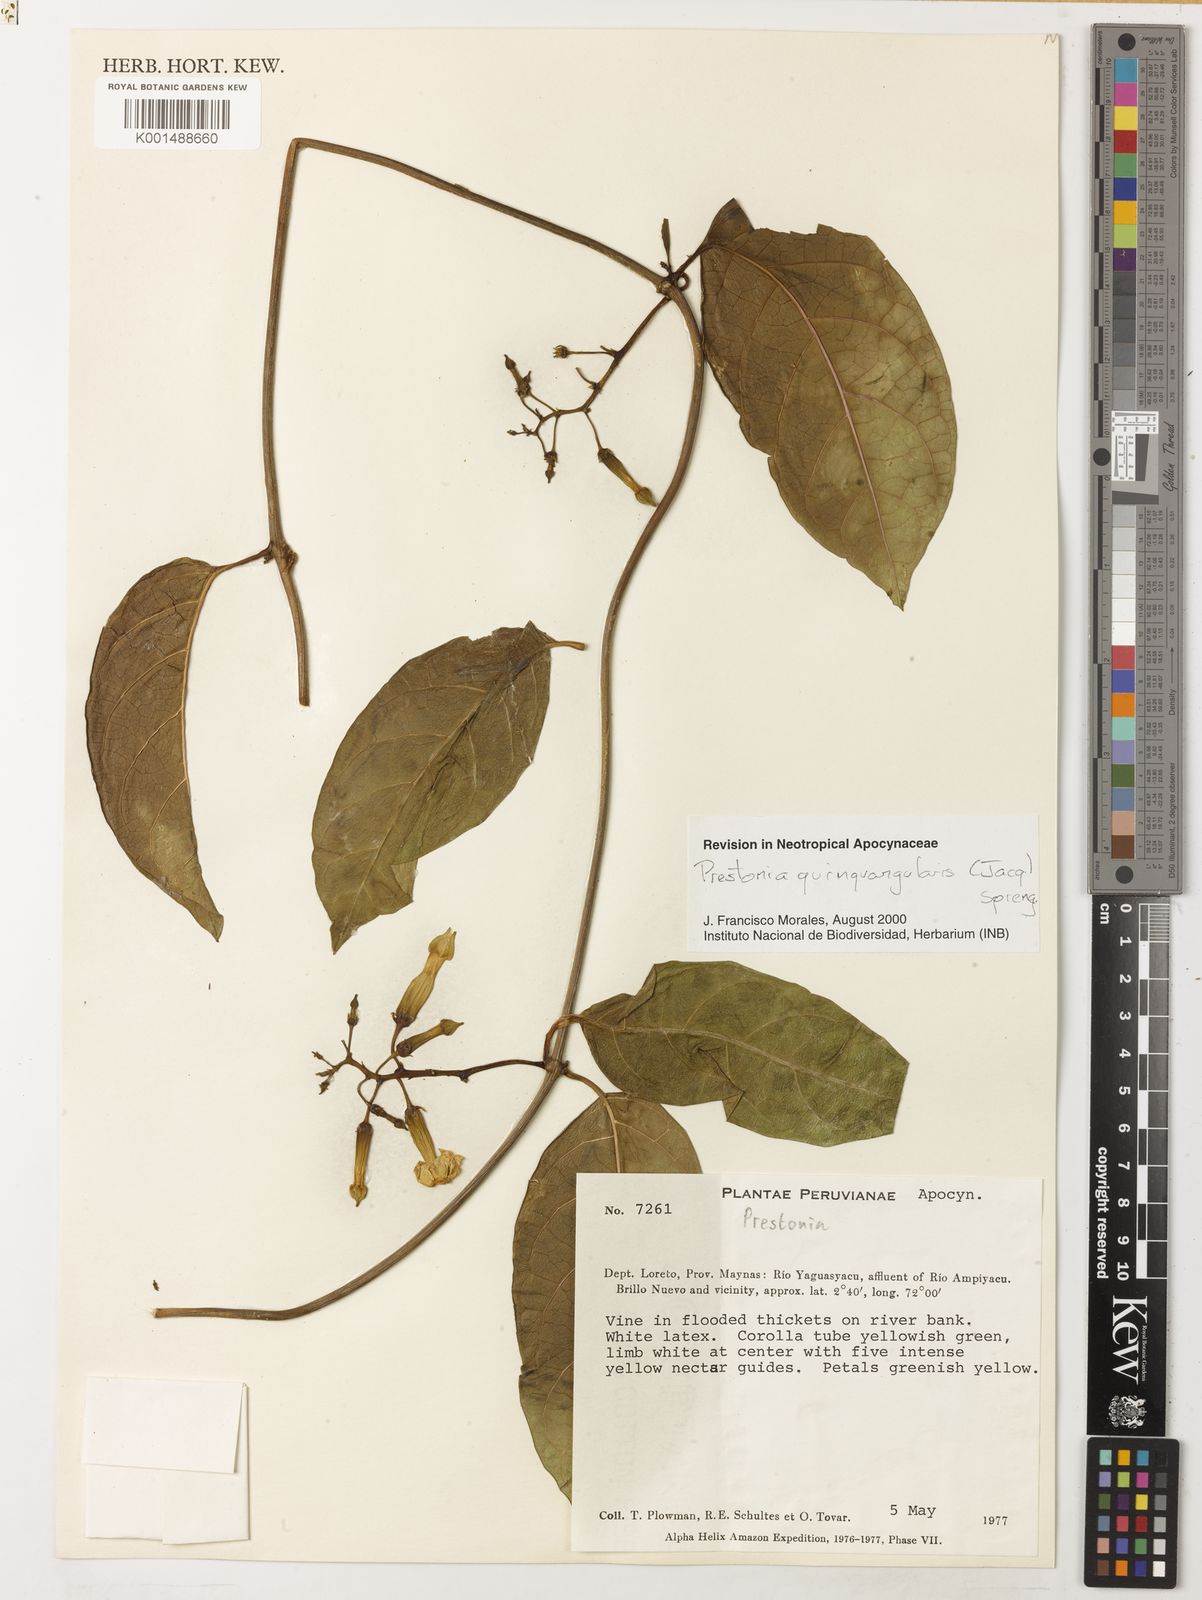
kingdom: Plantae
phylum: Tracheophyta
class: Magnoliopsida
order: Gentianales
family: Apocynaceae
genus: Prestonia
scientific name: Prestonia quinquangularis
